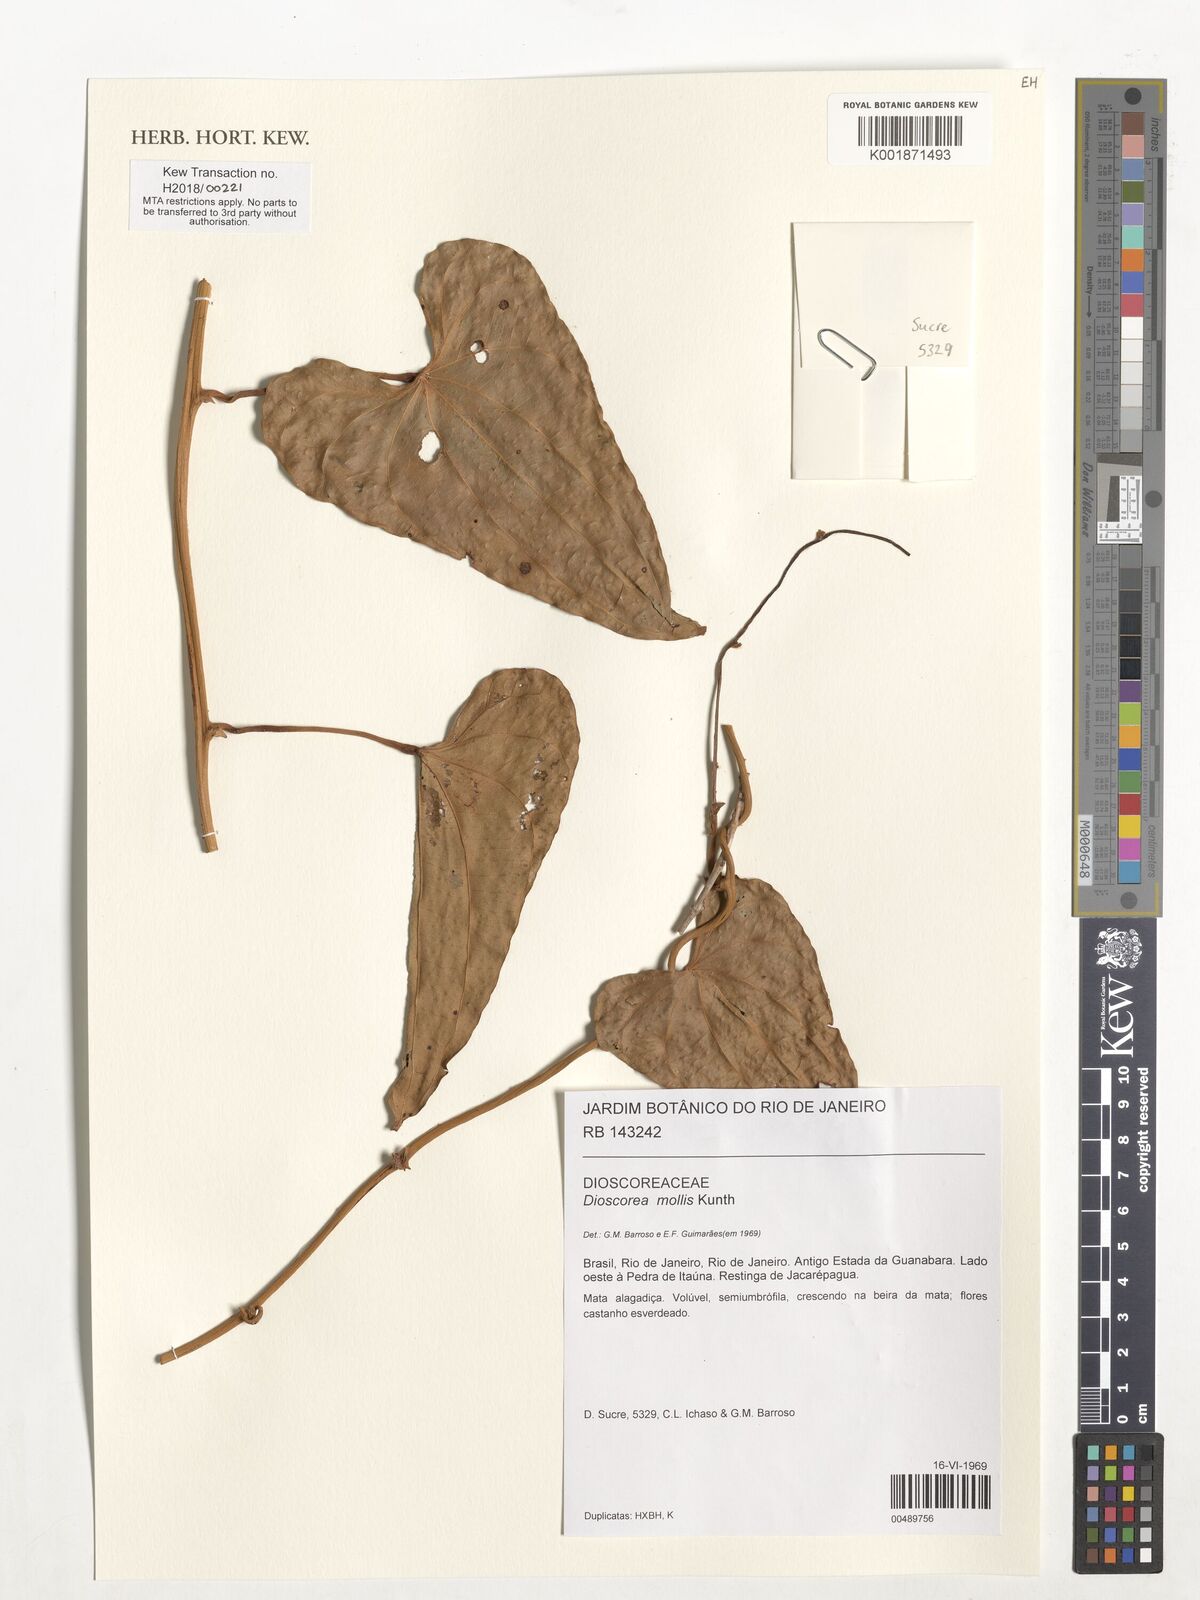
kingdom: Plantae
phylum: Tracheophyta
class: Liliopsida
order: Dioscoreales
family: Dioscoreaceae
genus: Dioscorea
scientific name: Dioscorea mollis
